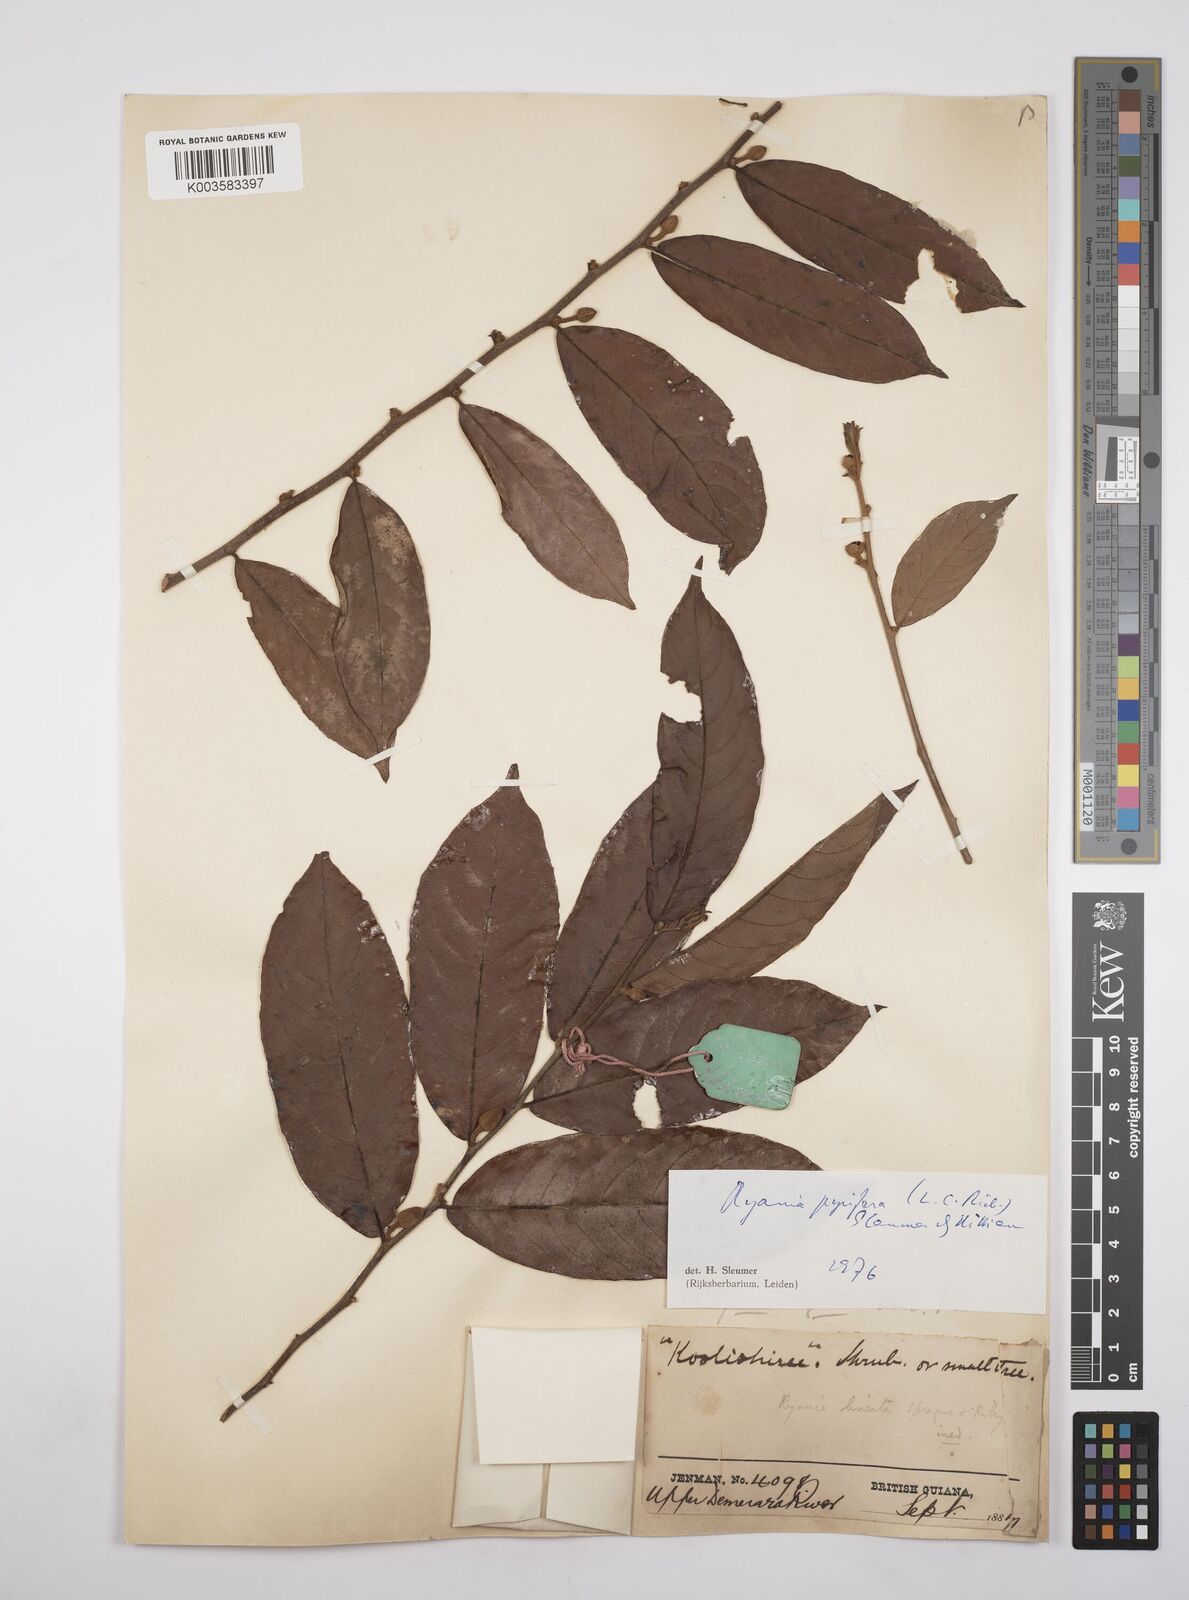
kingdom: Plantae
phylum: Tracheophyta
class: Magnoliopsida
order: Malpighiales
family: Salicaceae
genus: Ryania
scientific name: Ryania pyrifera
